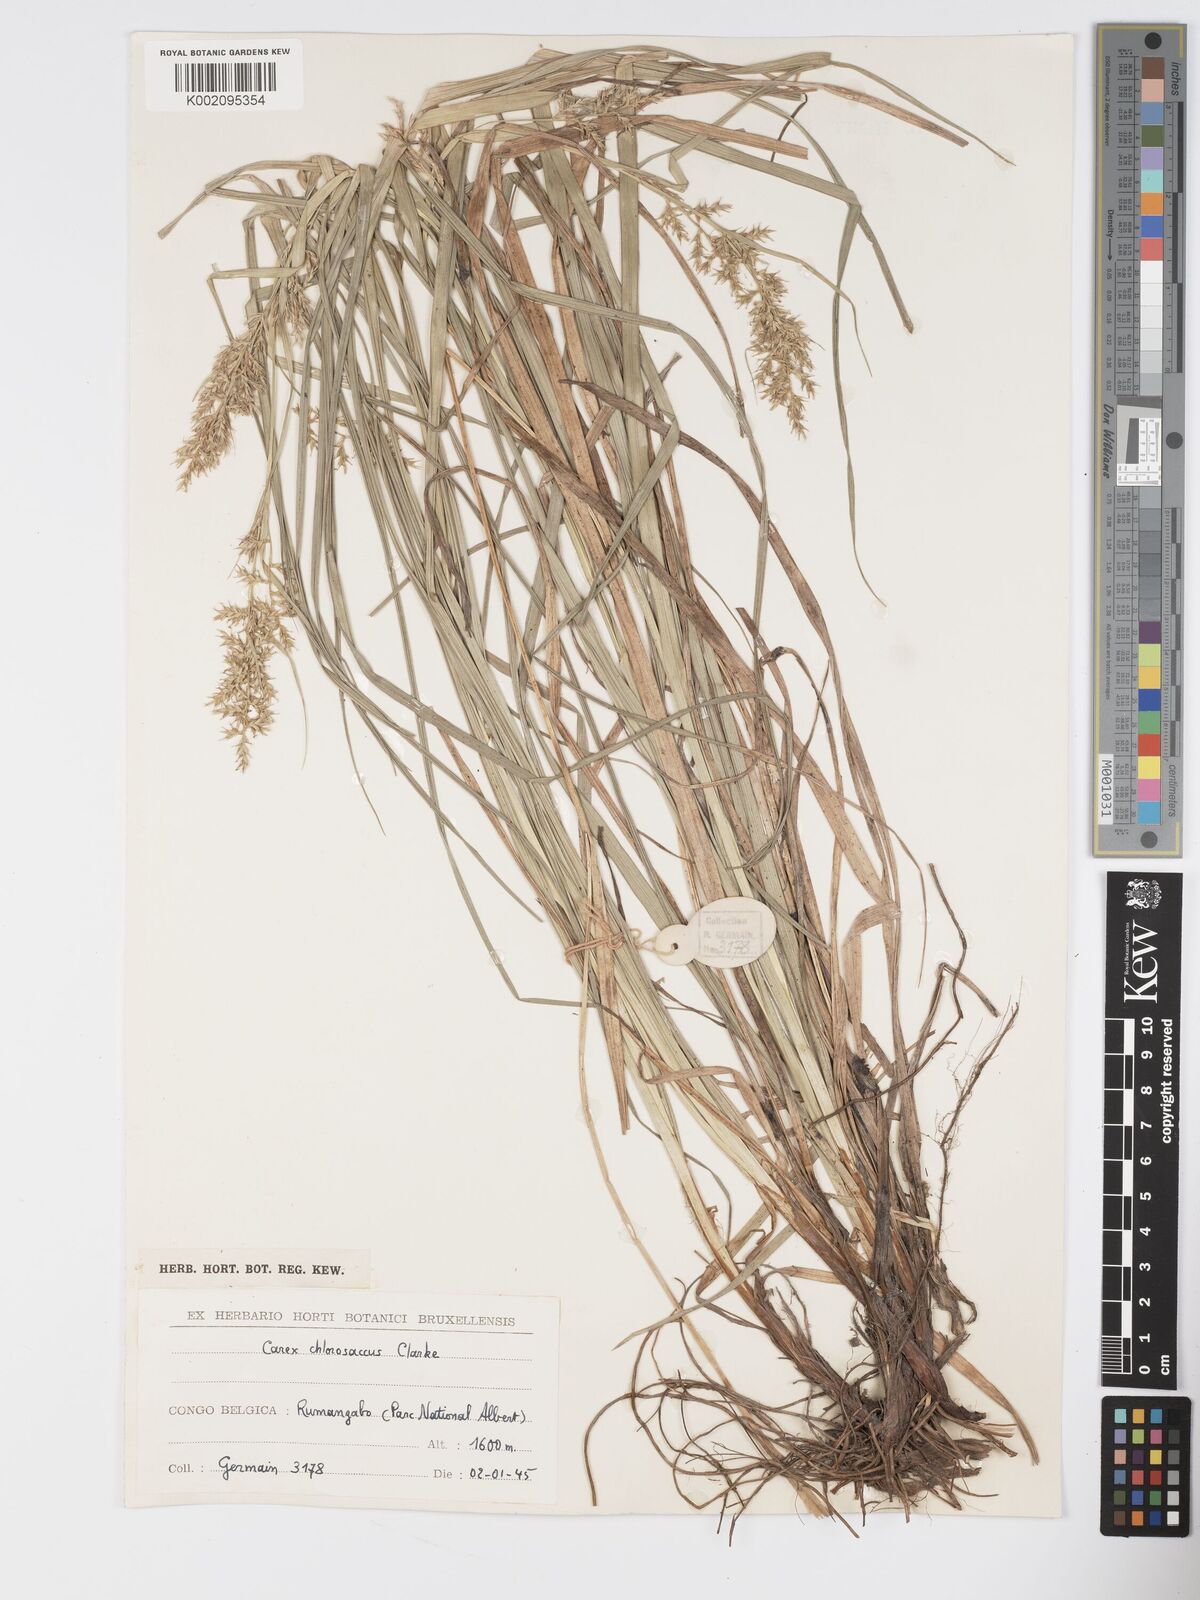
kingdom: Plantae
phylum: Tracheophyta
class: Liliopsida
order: Poales
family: Cyperaceae
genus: Carex
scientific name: Carex chlorosaccus
